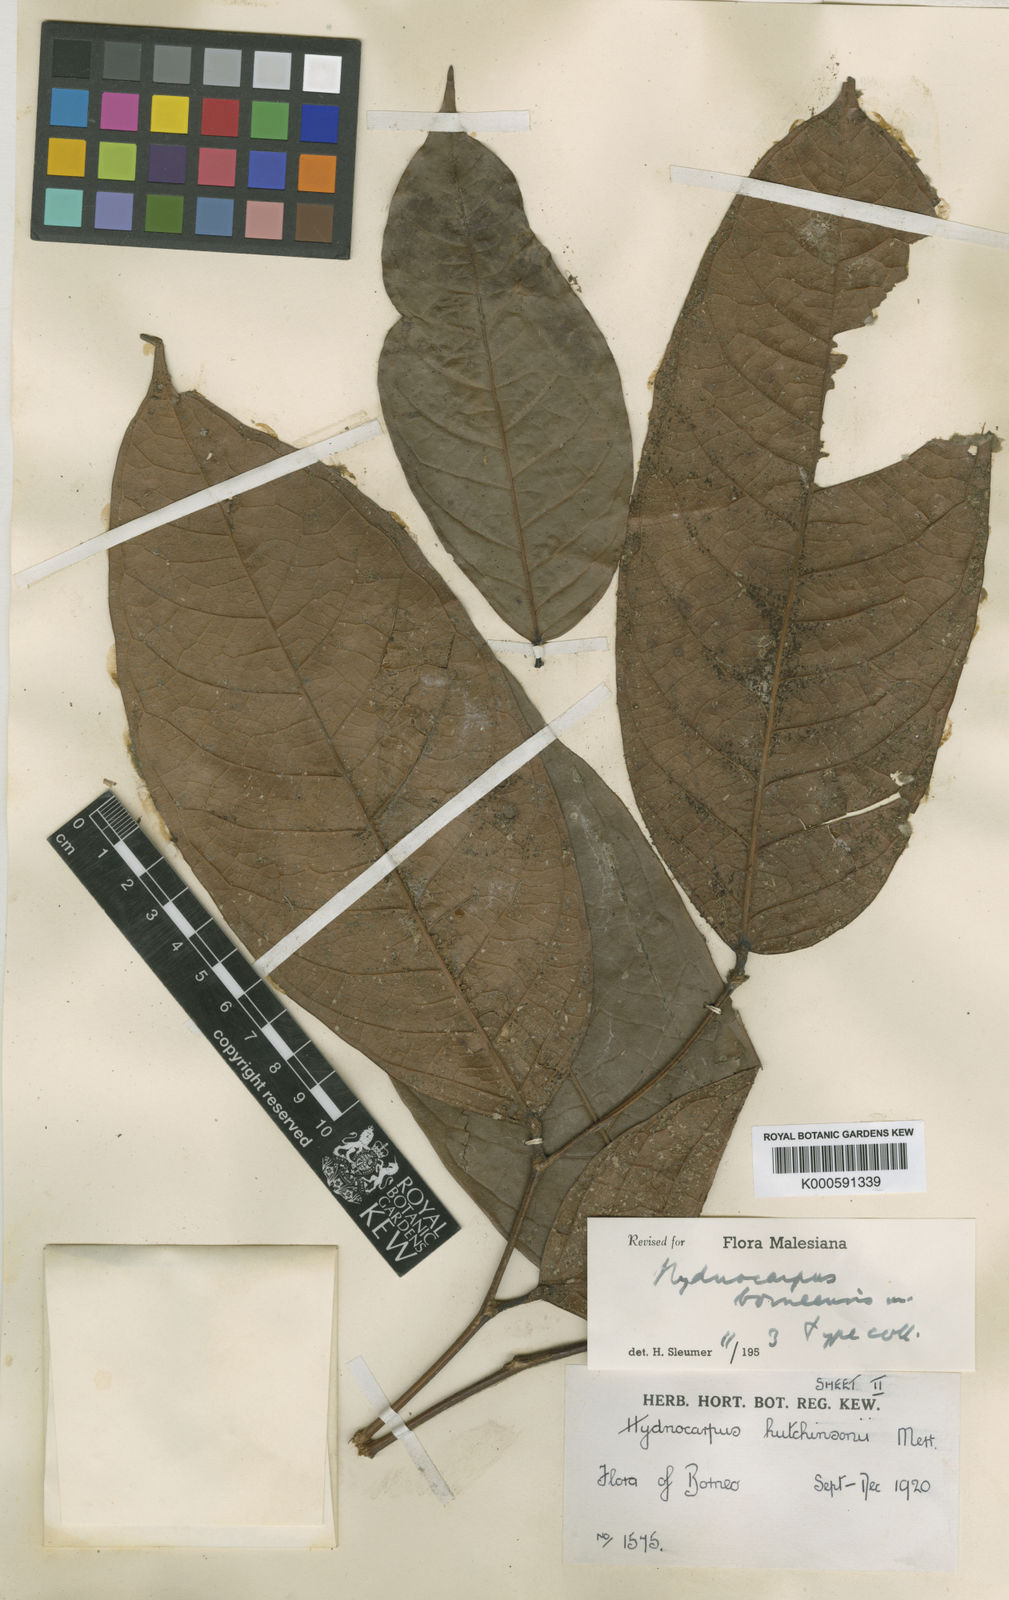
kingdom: Plantae
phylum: Tracheophyta
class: Magnoliopsida
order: Malpighiales
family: Achariaceae
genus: Hydnocarpus
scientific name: Hydnocarpus borneensis
